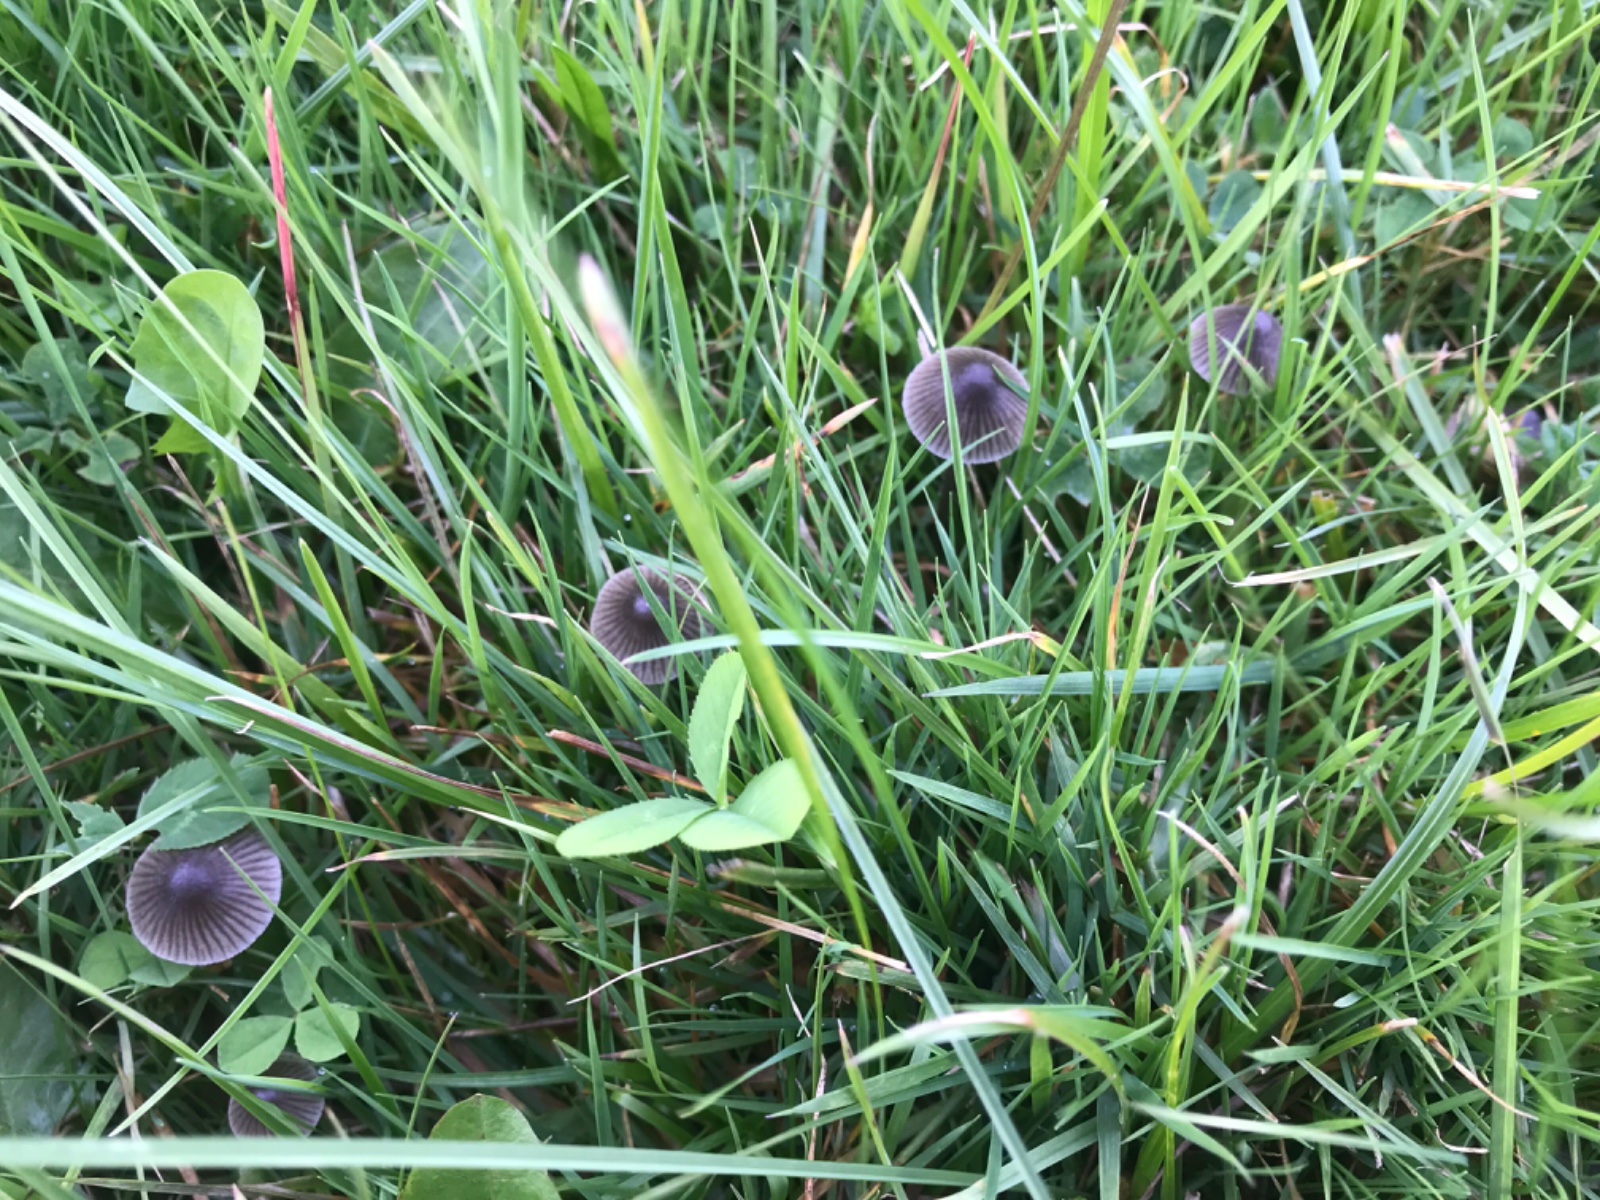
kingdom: Fungi
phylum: Basidiomycota
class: Agaricomycetes
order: Agaricales
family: Mycenaceae
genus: Mycena
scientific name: Mycena aetites
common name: plæne-huesvamp
